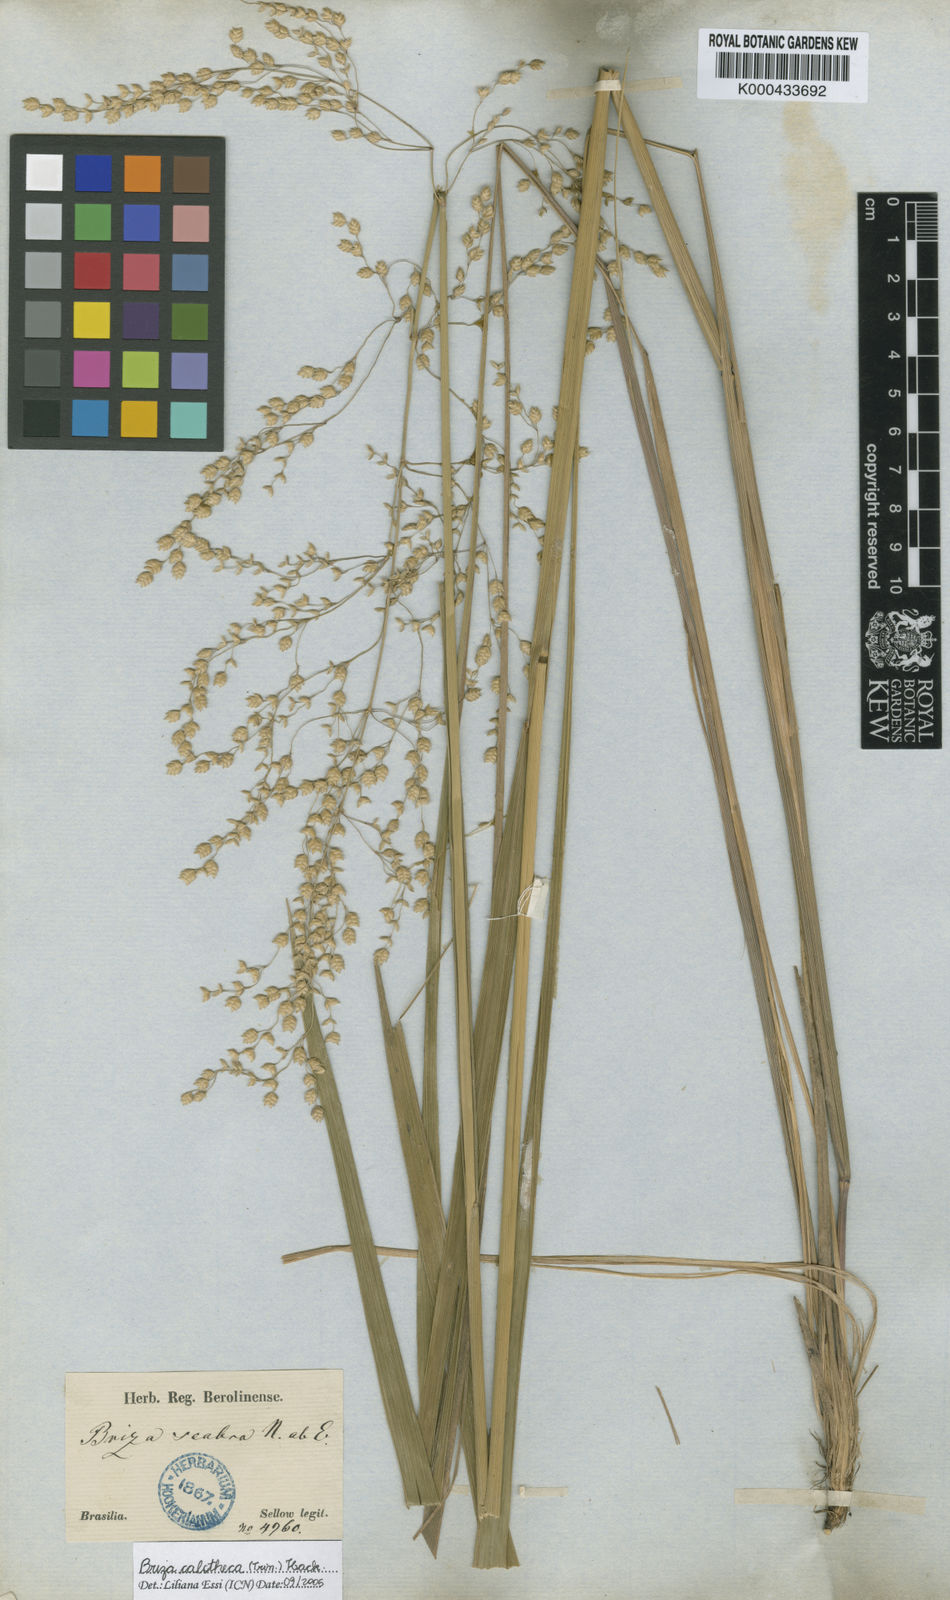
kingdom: Plantae
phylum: Tracheophyta
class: Liliopsida
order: Poales
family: Poaceae
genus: Poidium
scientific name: Poidium calotheca
